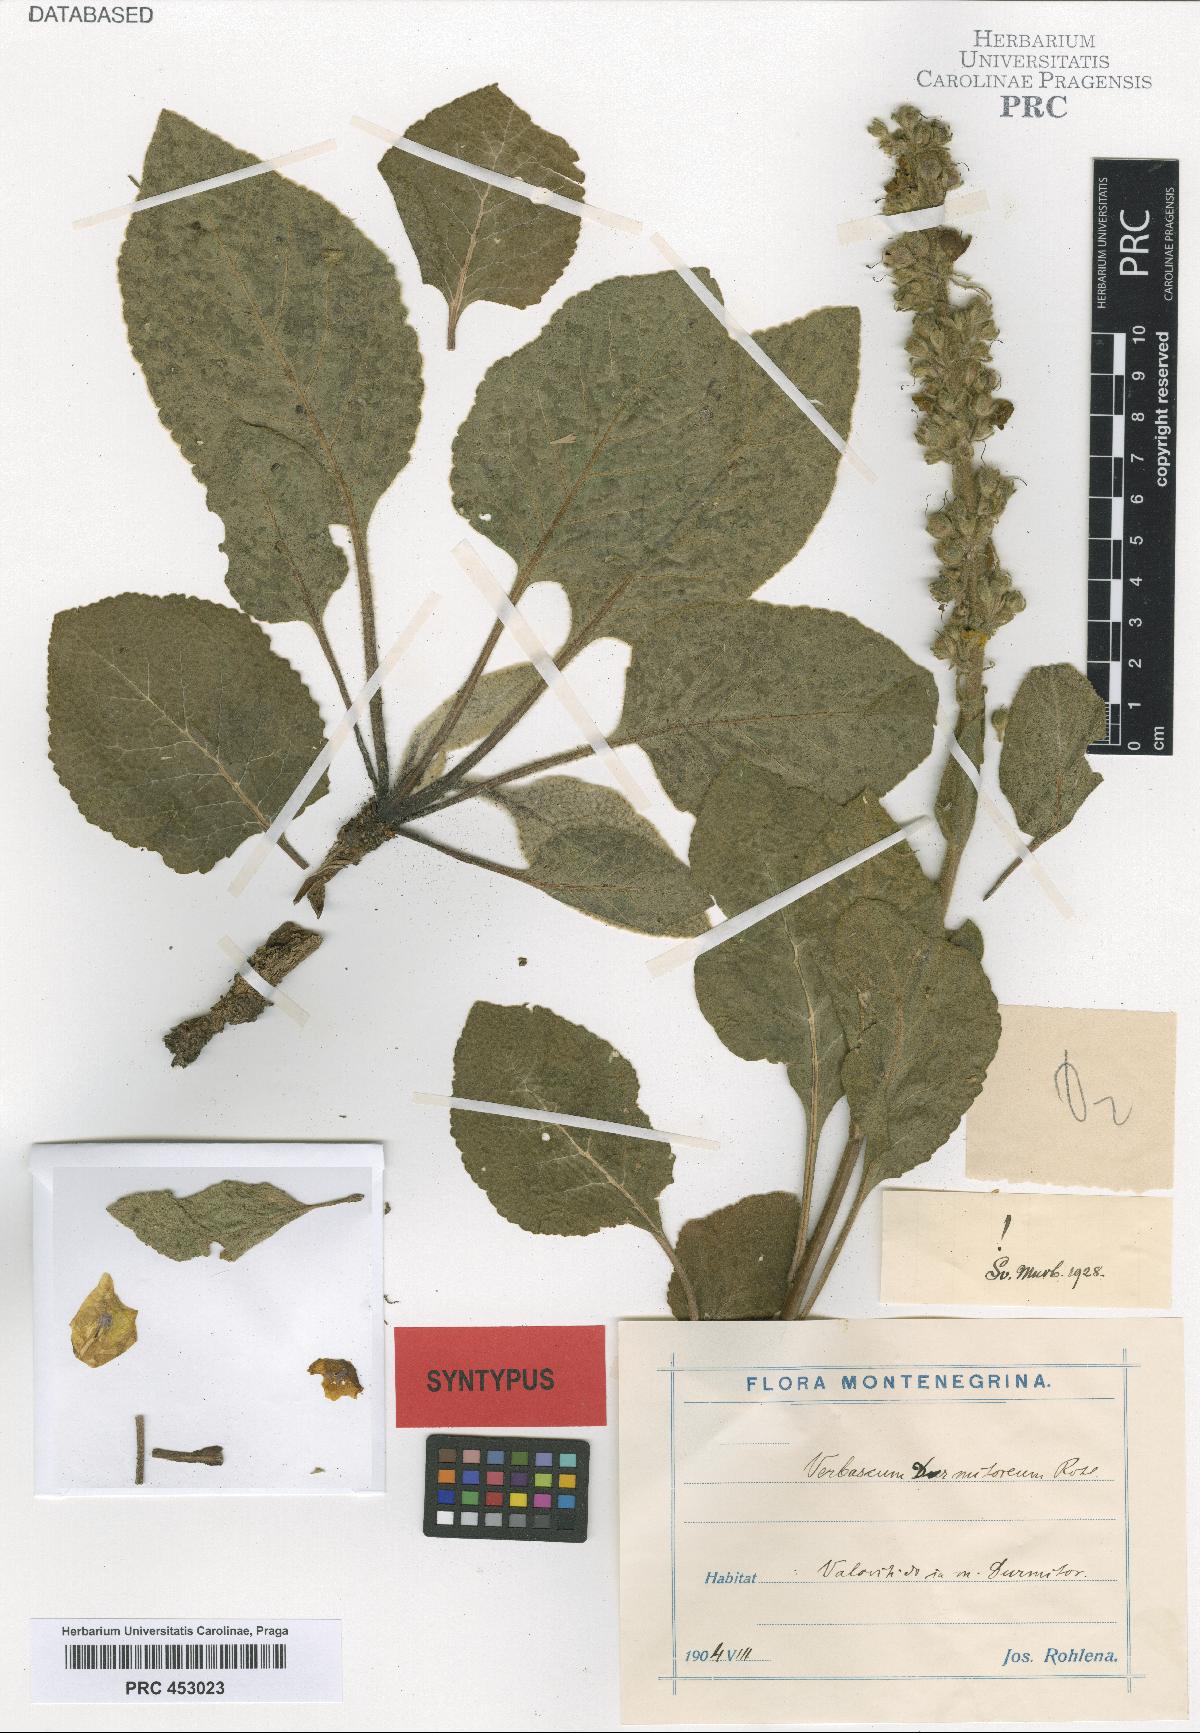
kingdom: Plantae
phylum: Tracheophyta
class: Magnoliopsida
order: Lamiales
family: Scrophulariaceae
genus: Verbascum
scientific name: Verbascum durmitoreum
